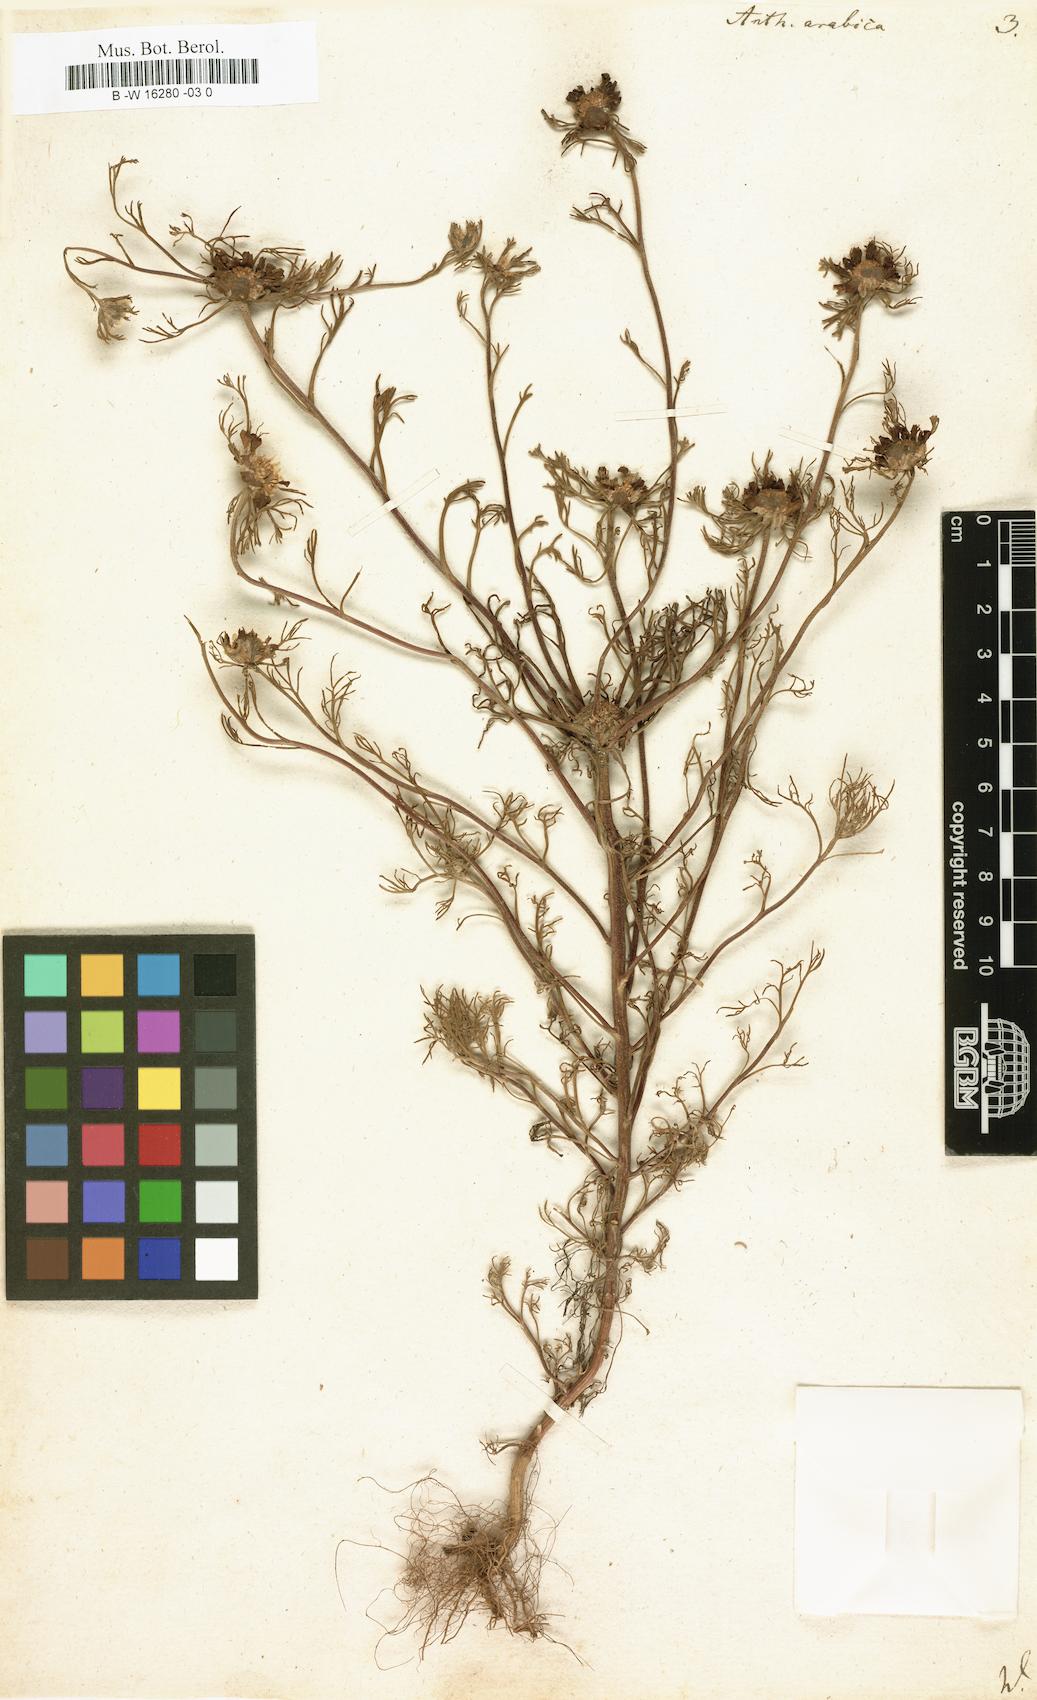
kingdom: Plantae
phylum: Tracheophyta
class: Magnoliopsida
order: Asterales
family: Asteraceae
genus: Cladanthus
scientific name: Cladanthus arabicus
